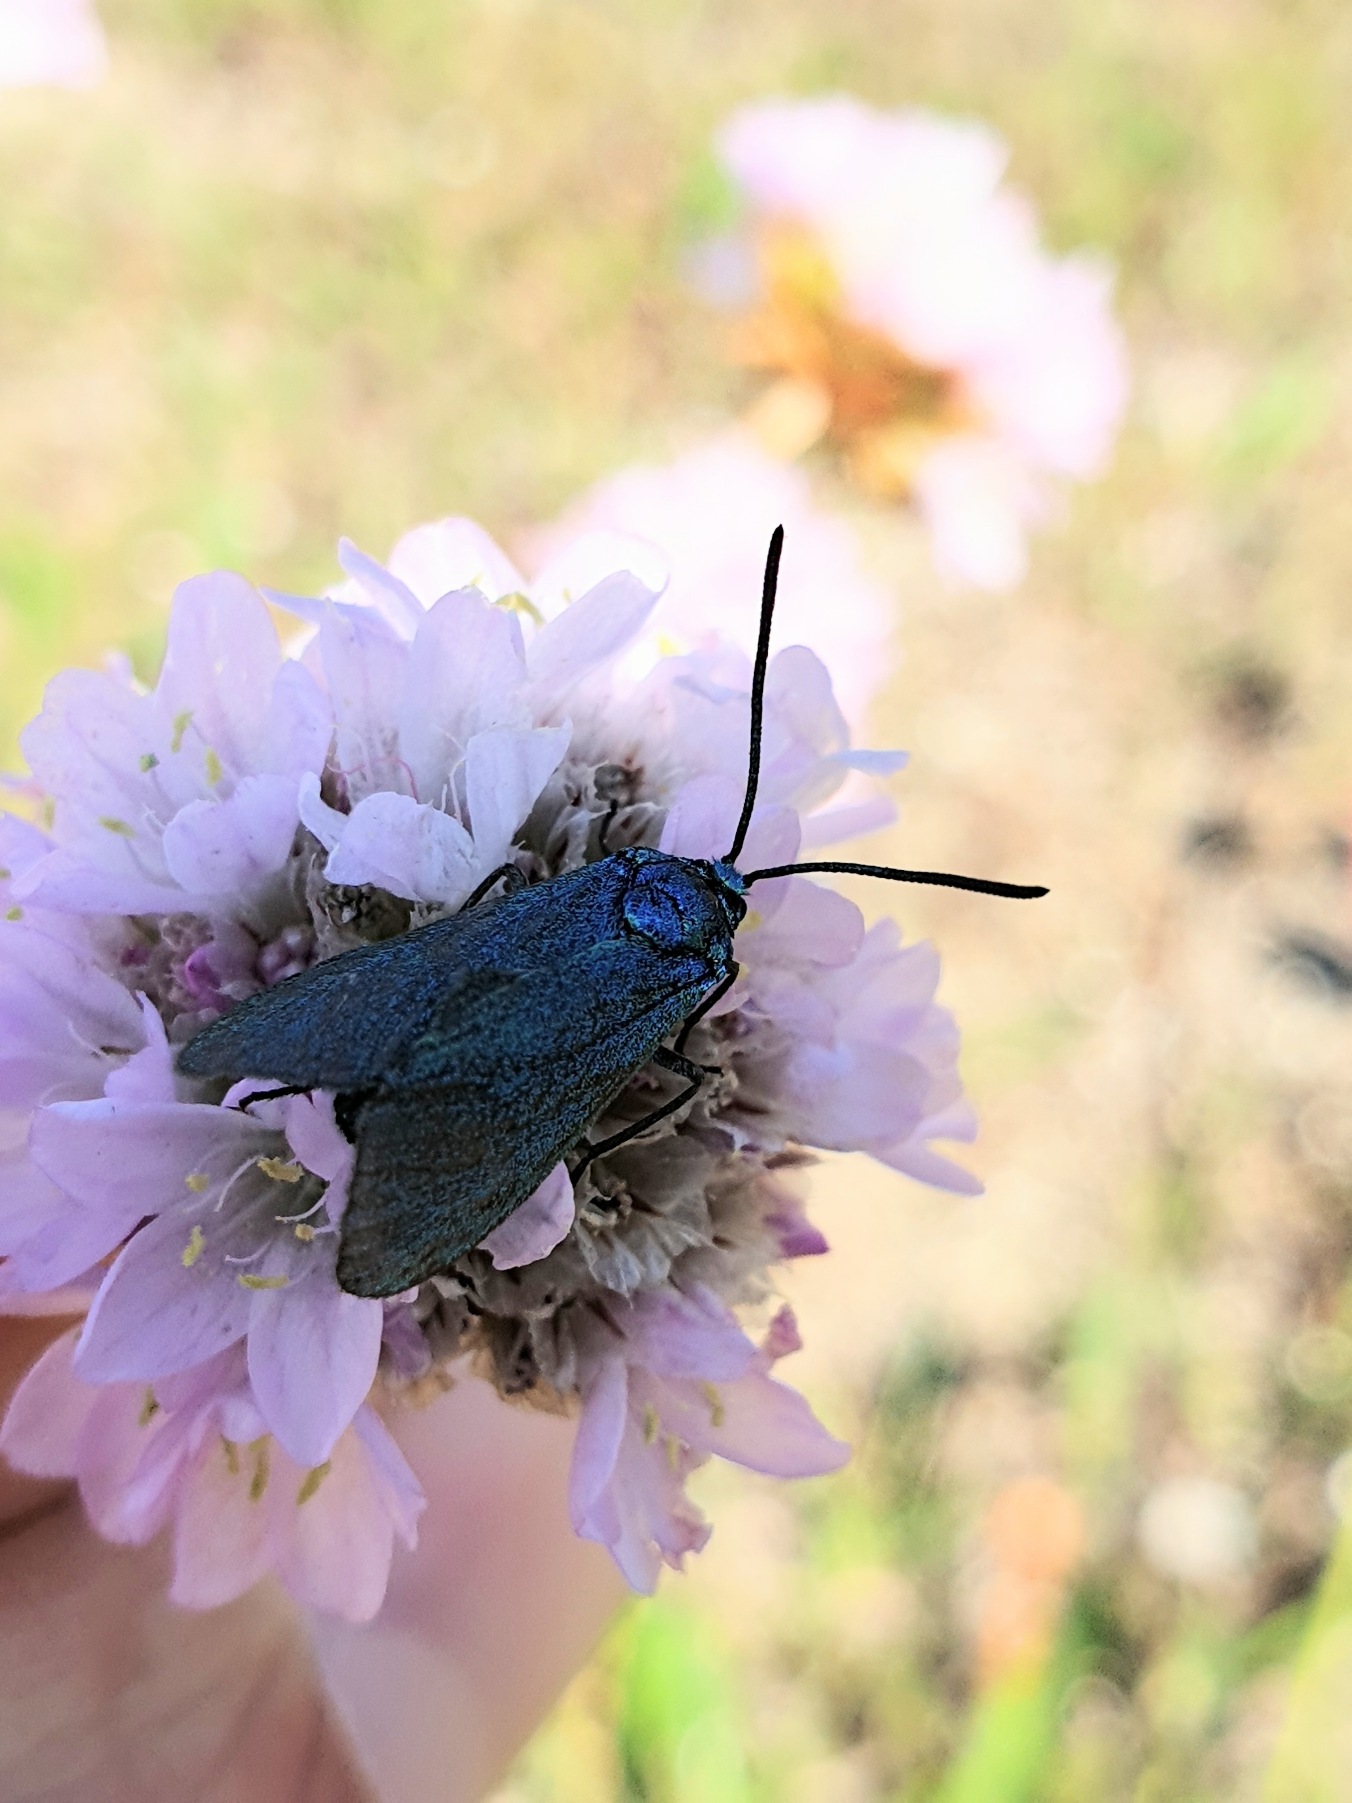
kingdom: Animalia
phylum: Arthropoda
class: Insecta
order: Lepidoptera
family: Zygaenidae
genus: Adscita
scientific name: Adscita statices
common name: Metalvinge
